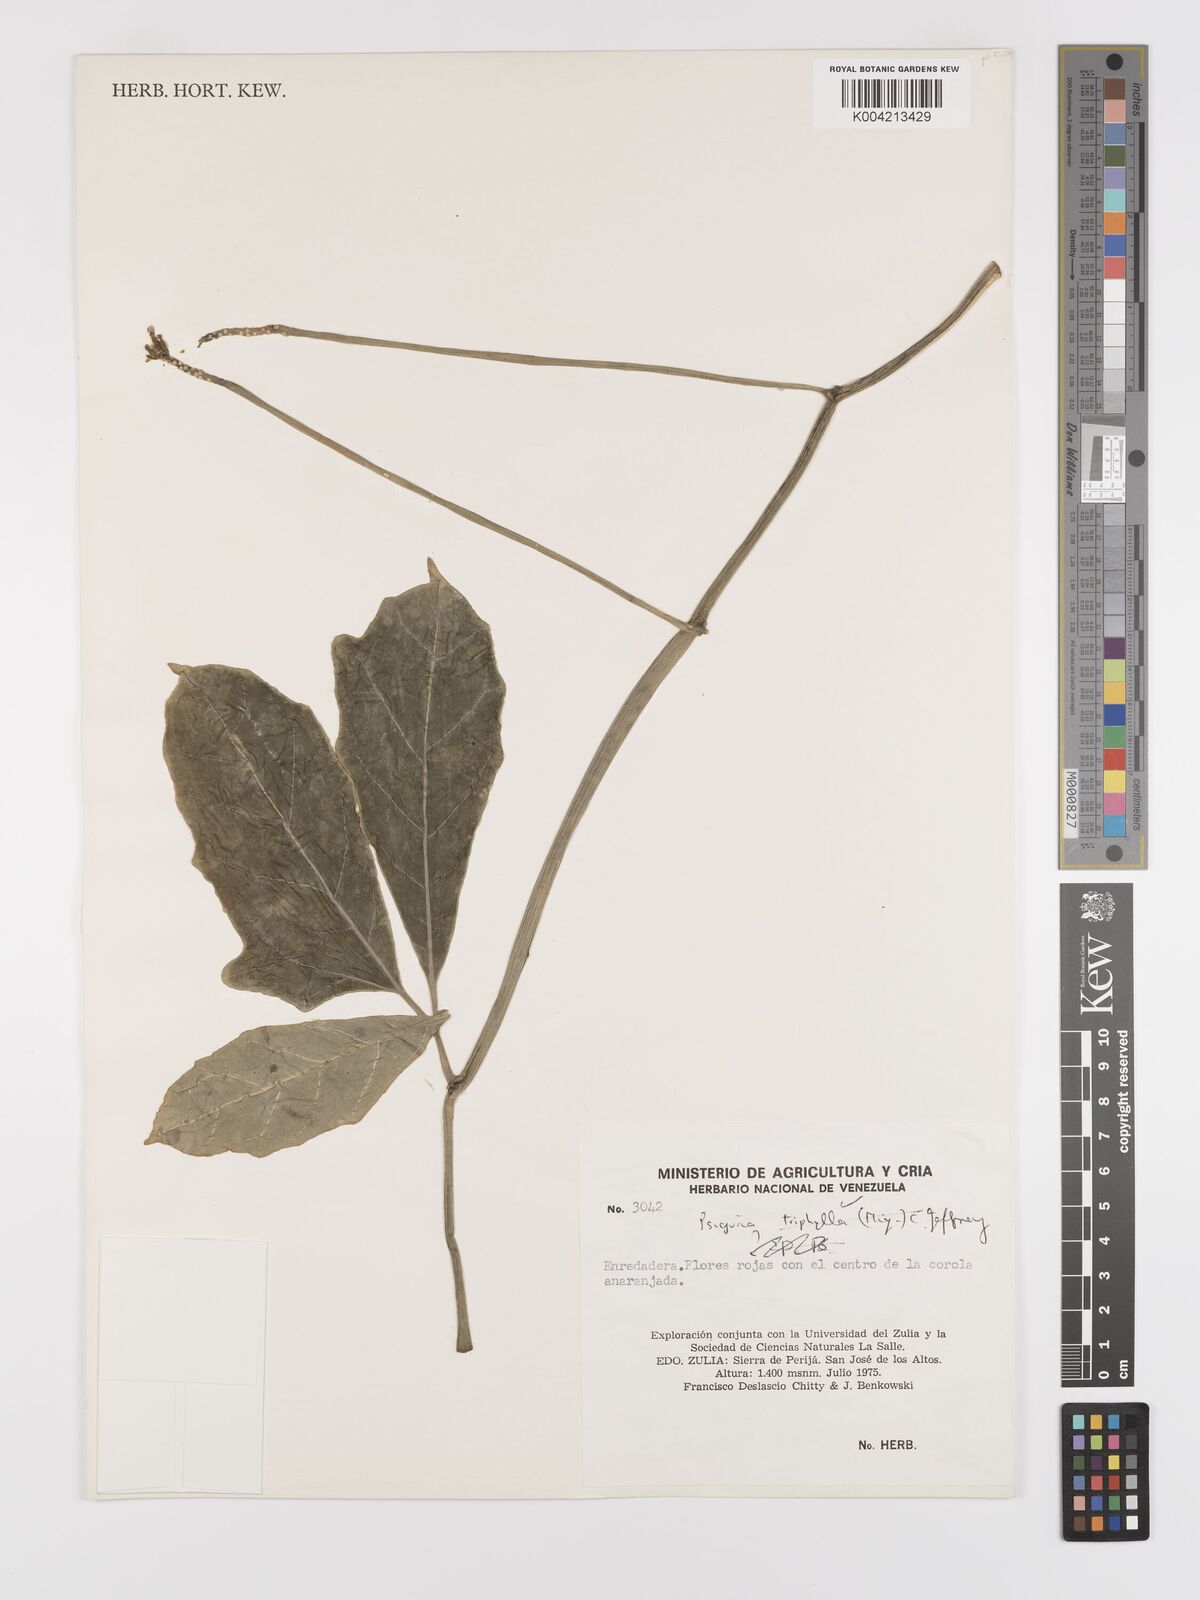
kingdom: Plantae
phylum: Tracheophyta
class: Magnoliopsida
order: Cucurbitales
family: Cucurbitaceae
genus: Psiguria
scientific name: Psiguria triphylla
